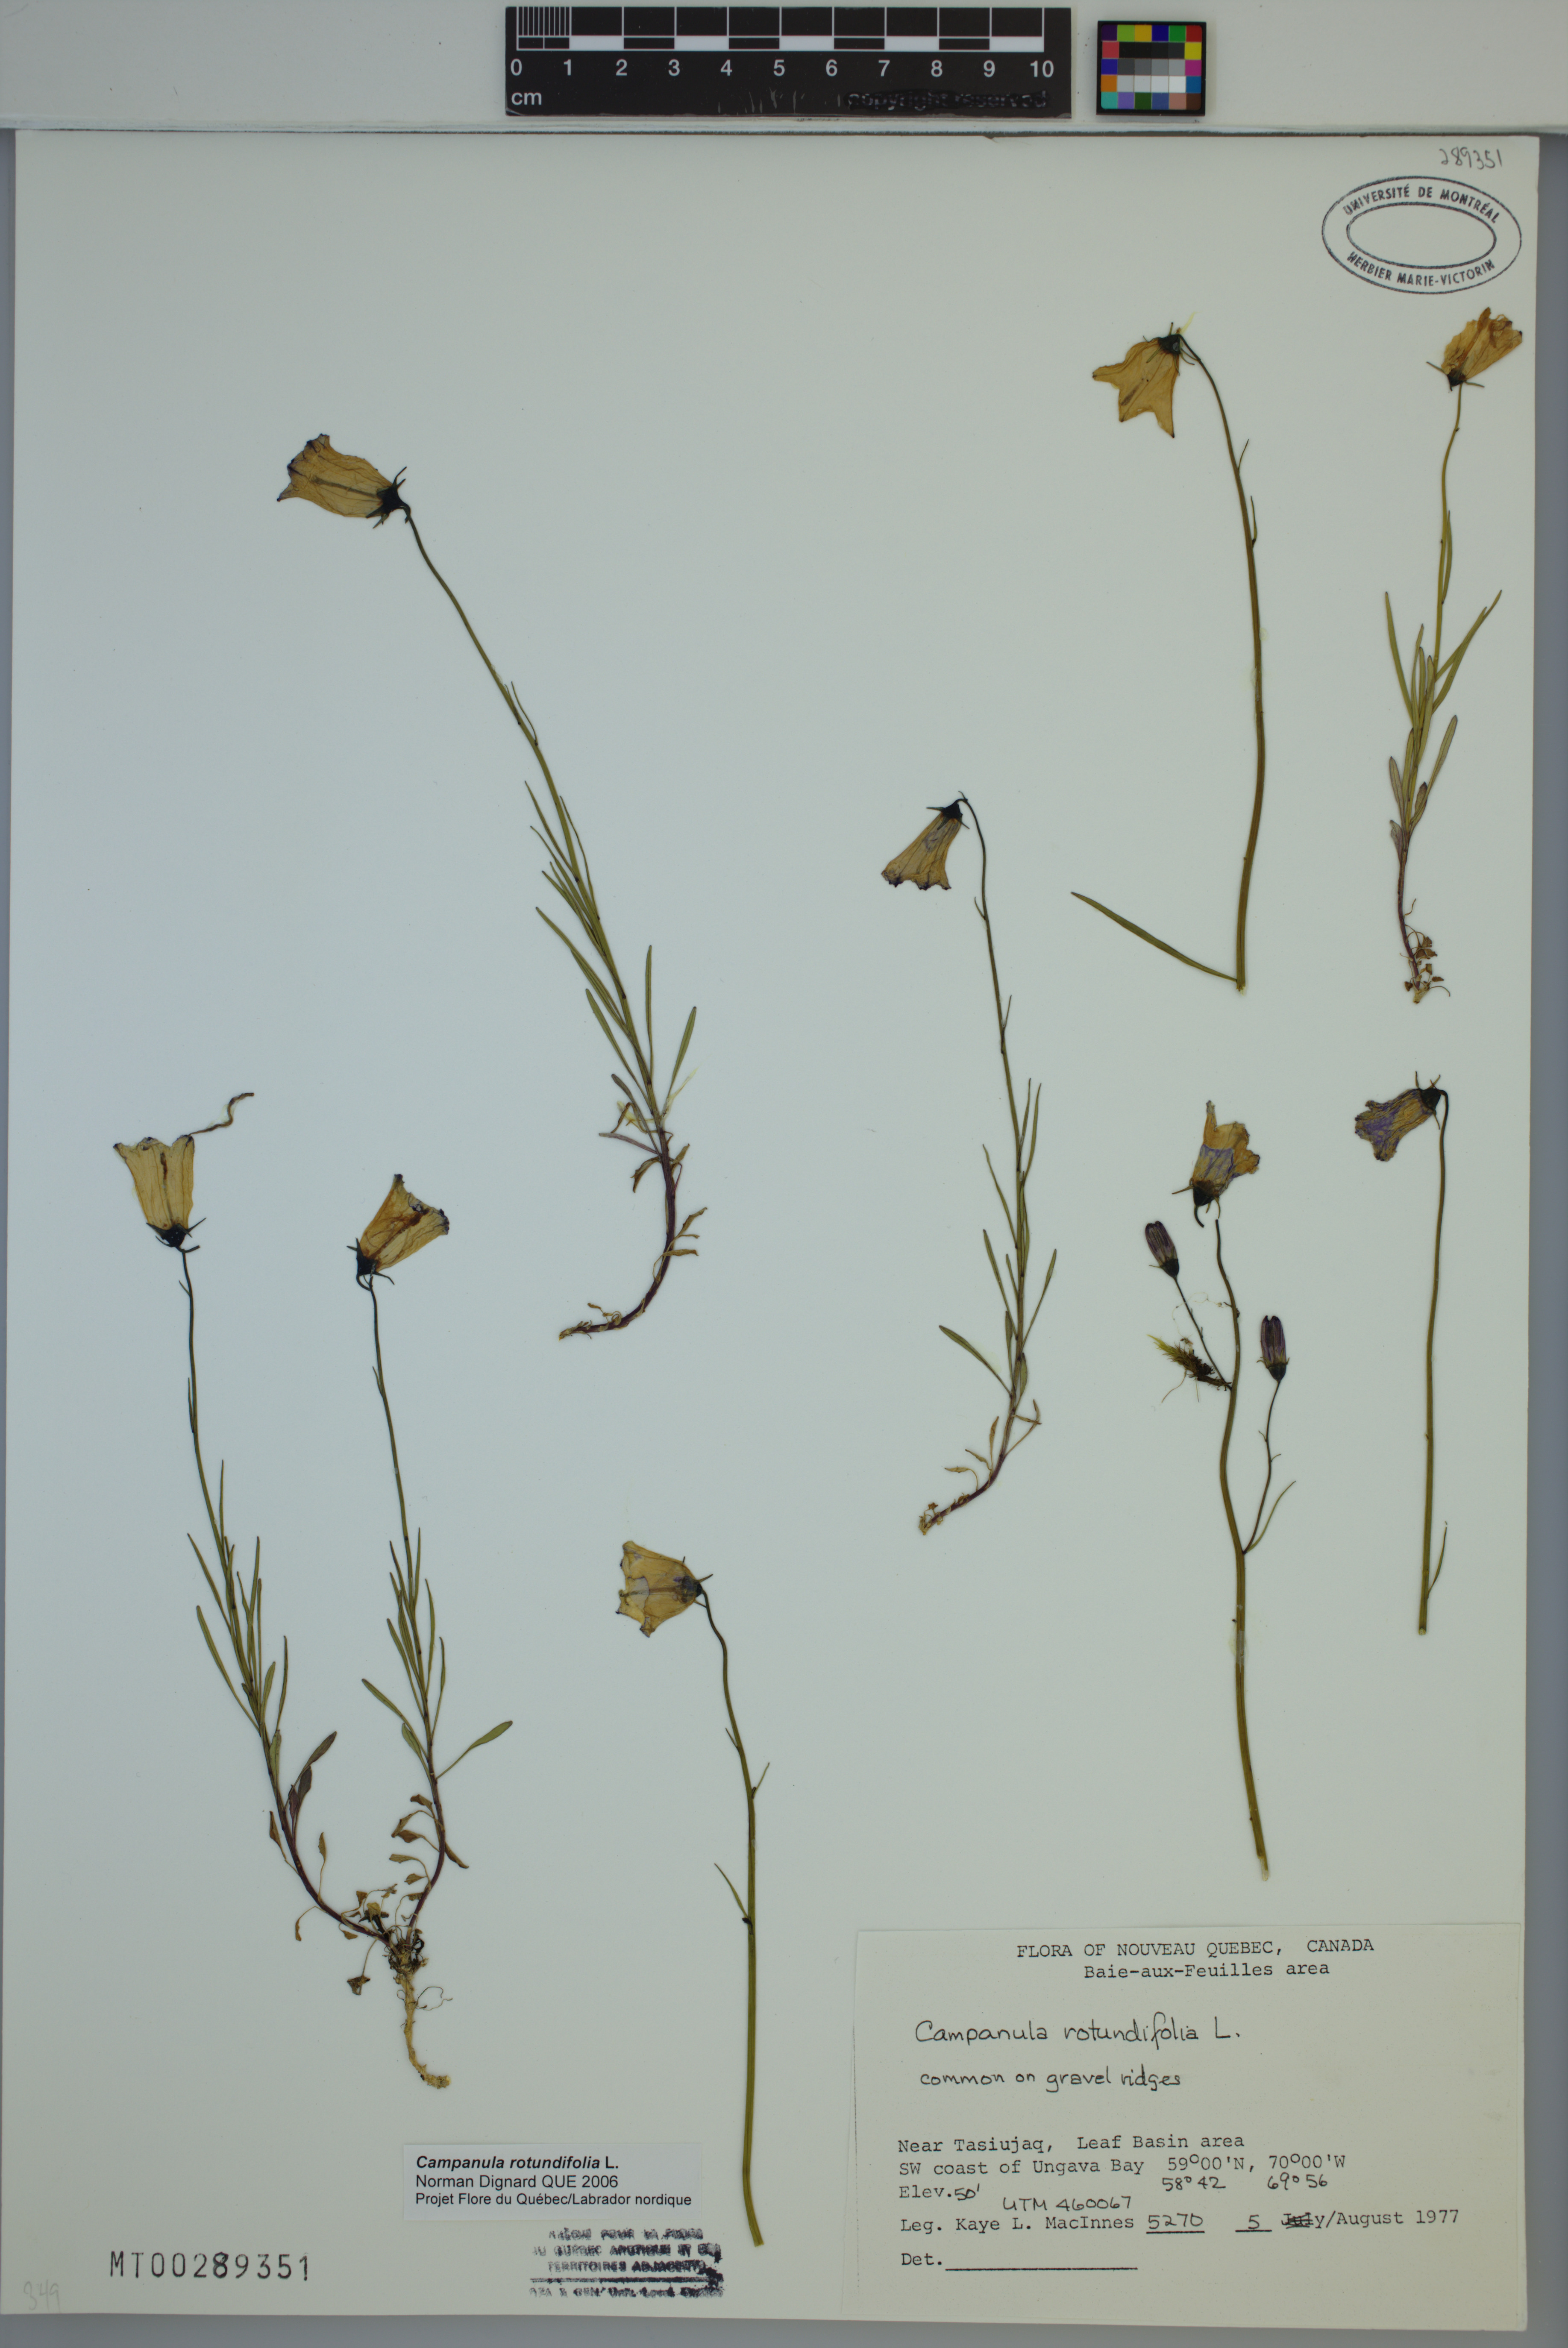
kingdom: Plantae
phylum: Tracheophyta
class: Magnoliopsida
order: Asterales
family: Campanulaceae
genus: Campanula
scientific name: Campanula rotundifolia
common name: Harebell
